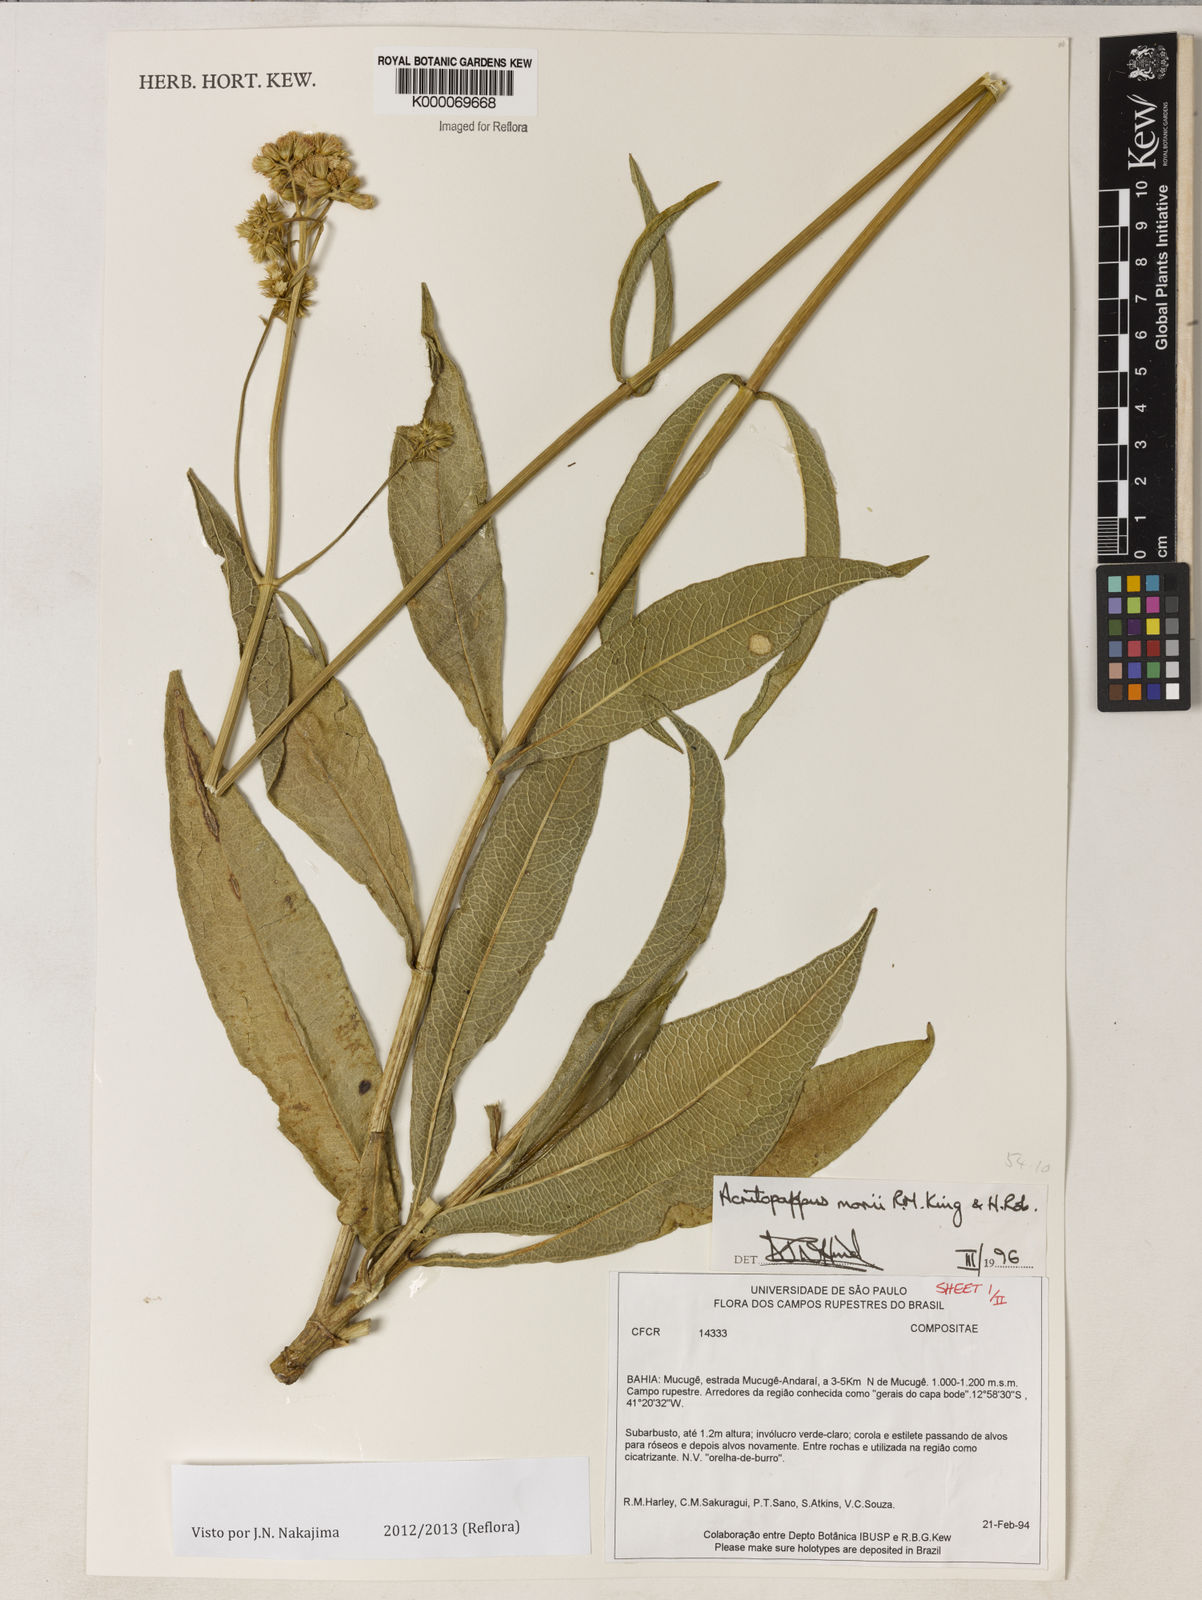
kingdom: Plantae
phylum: Tracheophyta
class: Magnoliopsida
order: Asterales
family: Asteraceae
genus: Acritopappus
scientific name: Acritopappus morii
